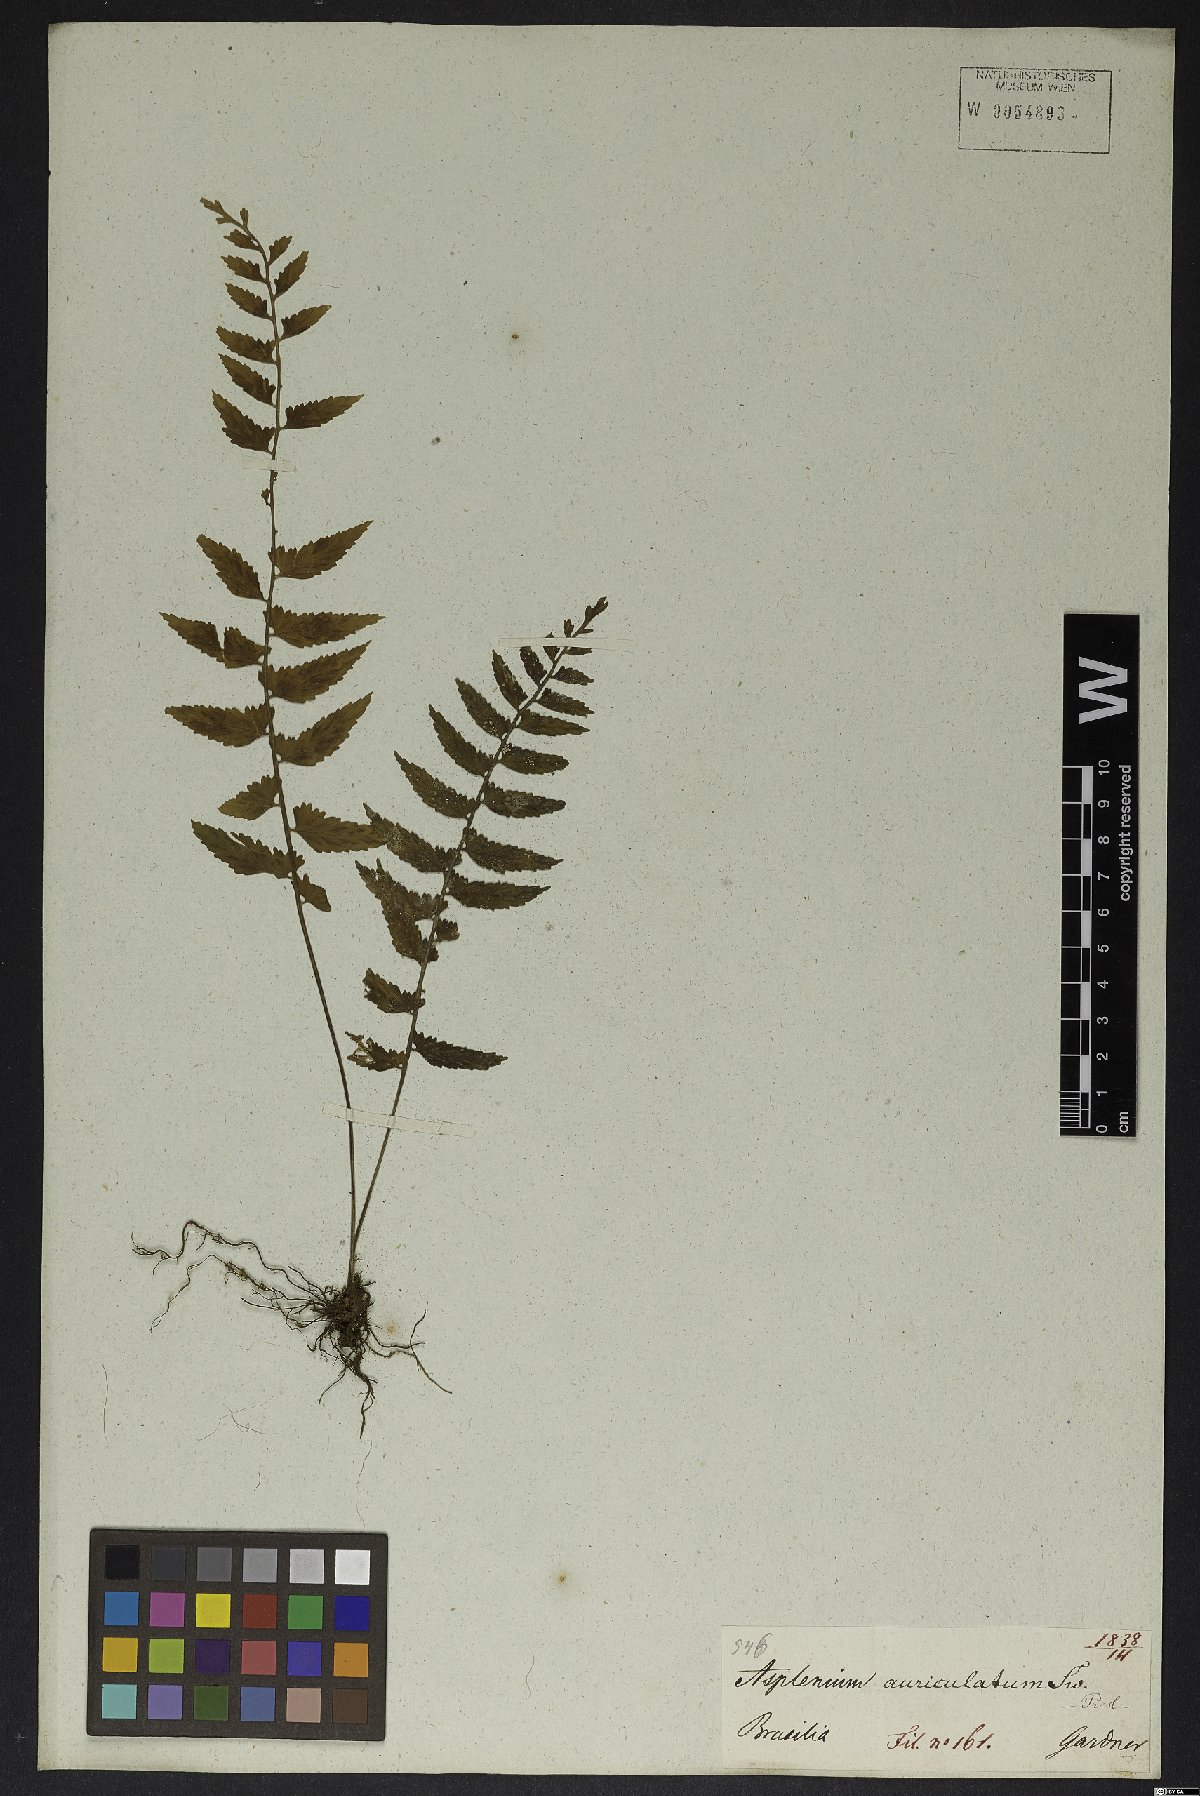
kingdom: Plantae
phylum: Tracheophyta
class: Polypodiopsida
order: Polypodiales
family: Aspleniaceae
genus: Asplenium
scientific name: Asplenium auriculatum
